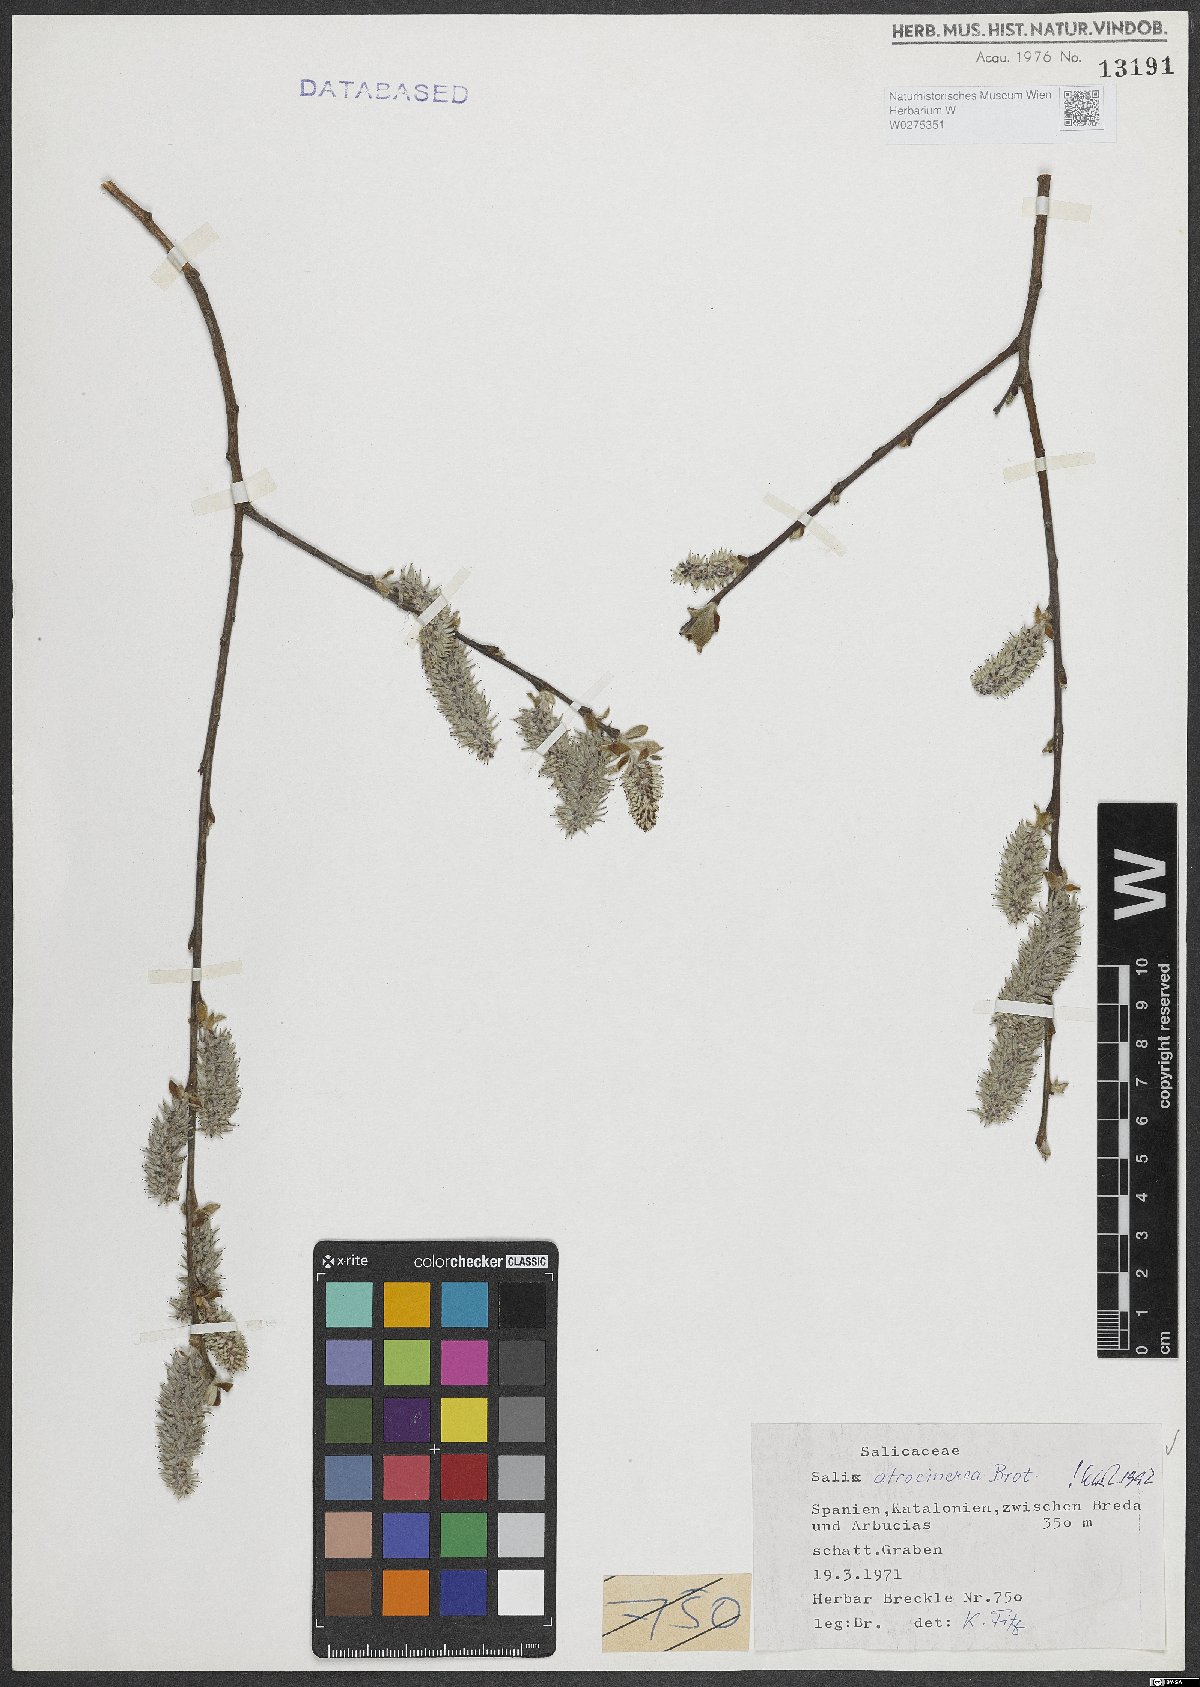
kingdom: Plantae
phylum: Tracheophyta
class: Magnoliopsida
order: Malpighiales
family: Salicaceae
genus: Salix
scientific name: Salix atrocinerea
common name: Rusty willow
